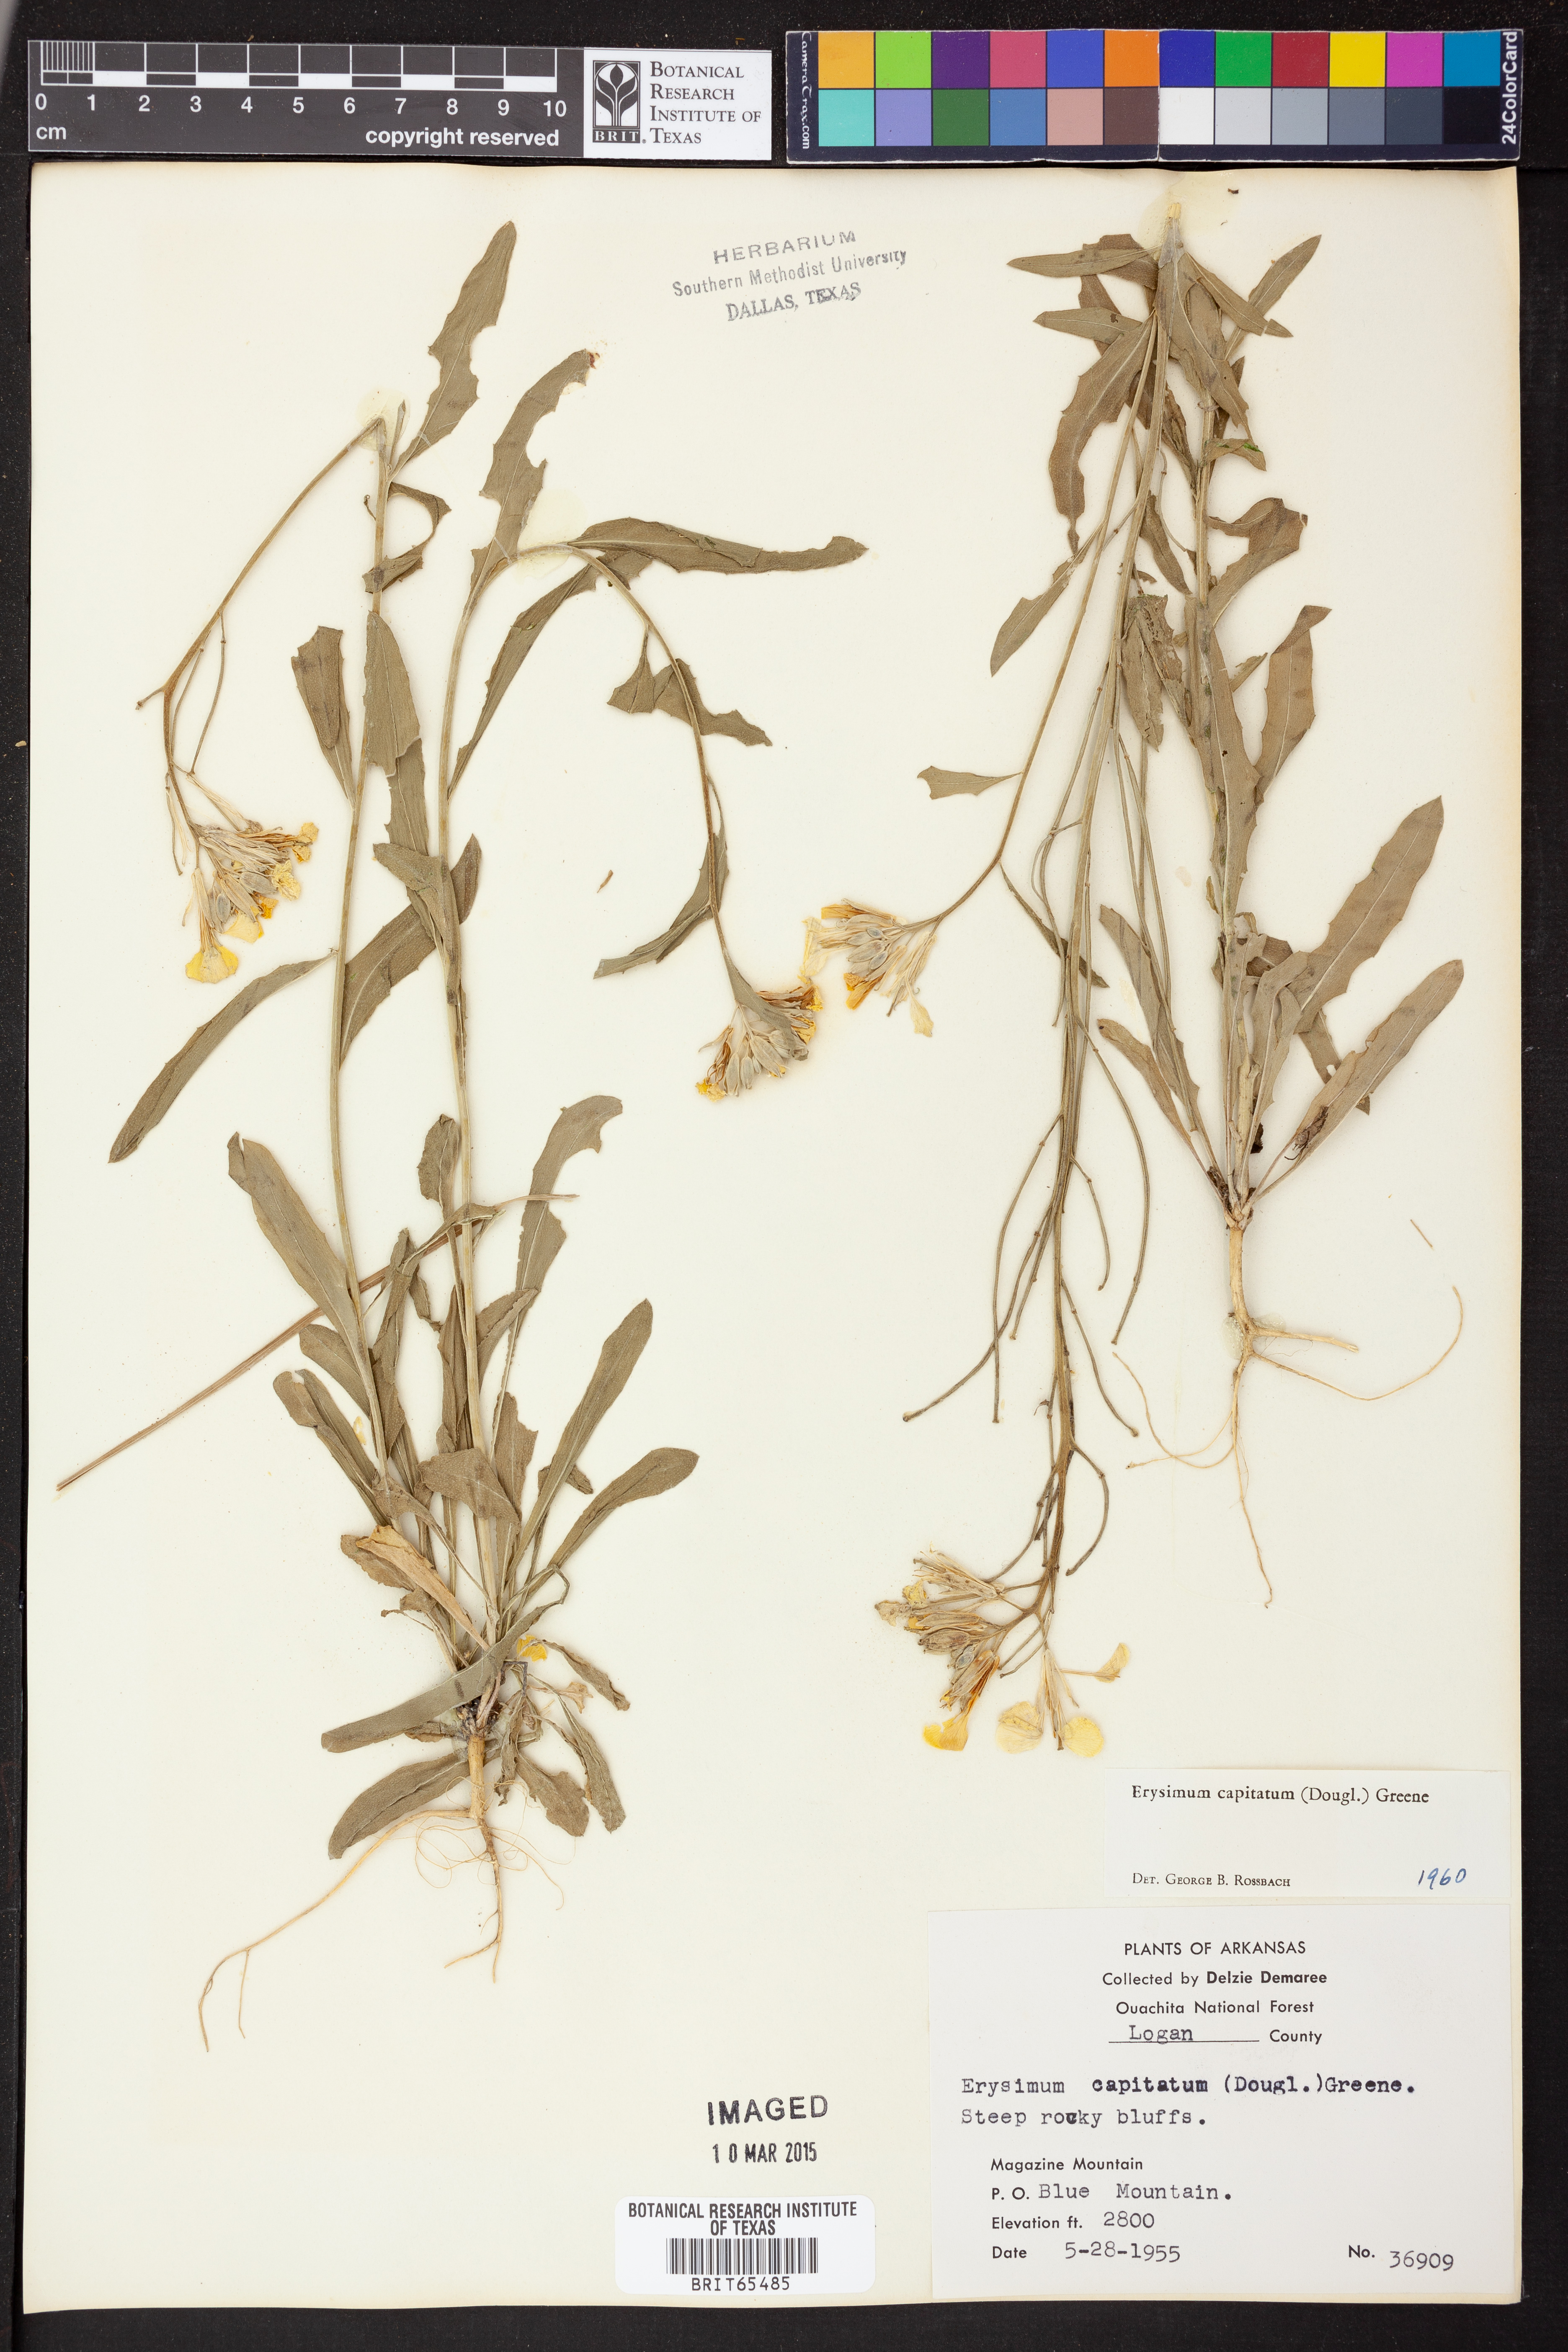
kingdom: Plantae
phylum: Tracheophyta
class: Magnoliopsida
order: Brassicales
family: Brassicaceae
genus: Erysimum
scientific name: Erysimum capitatum
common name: Western wallflower
